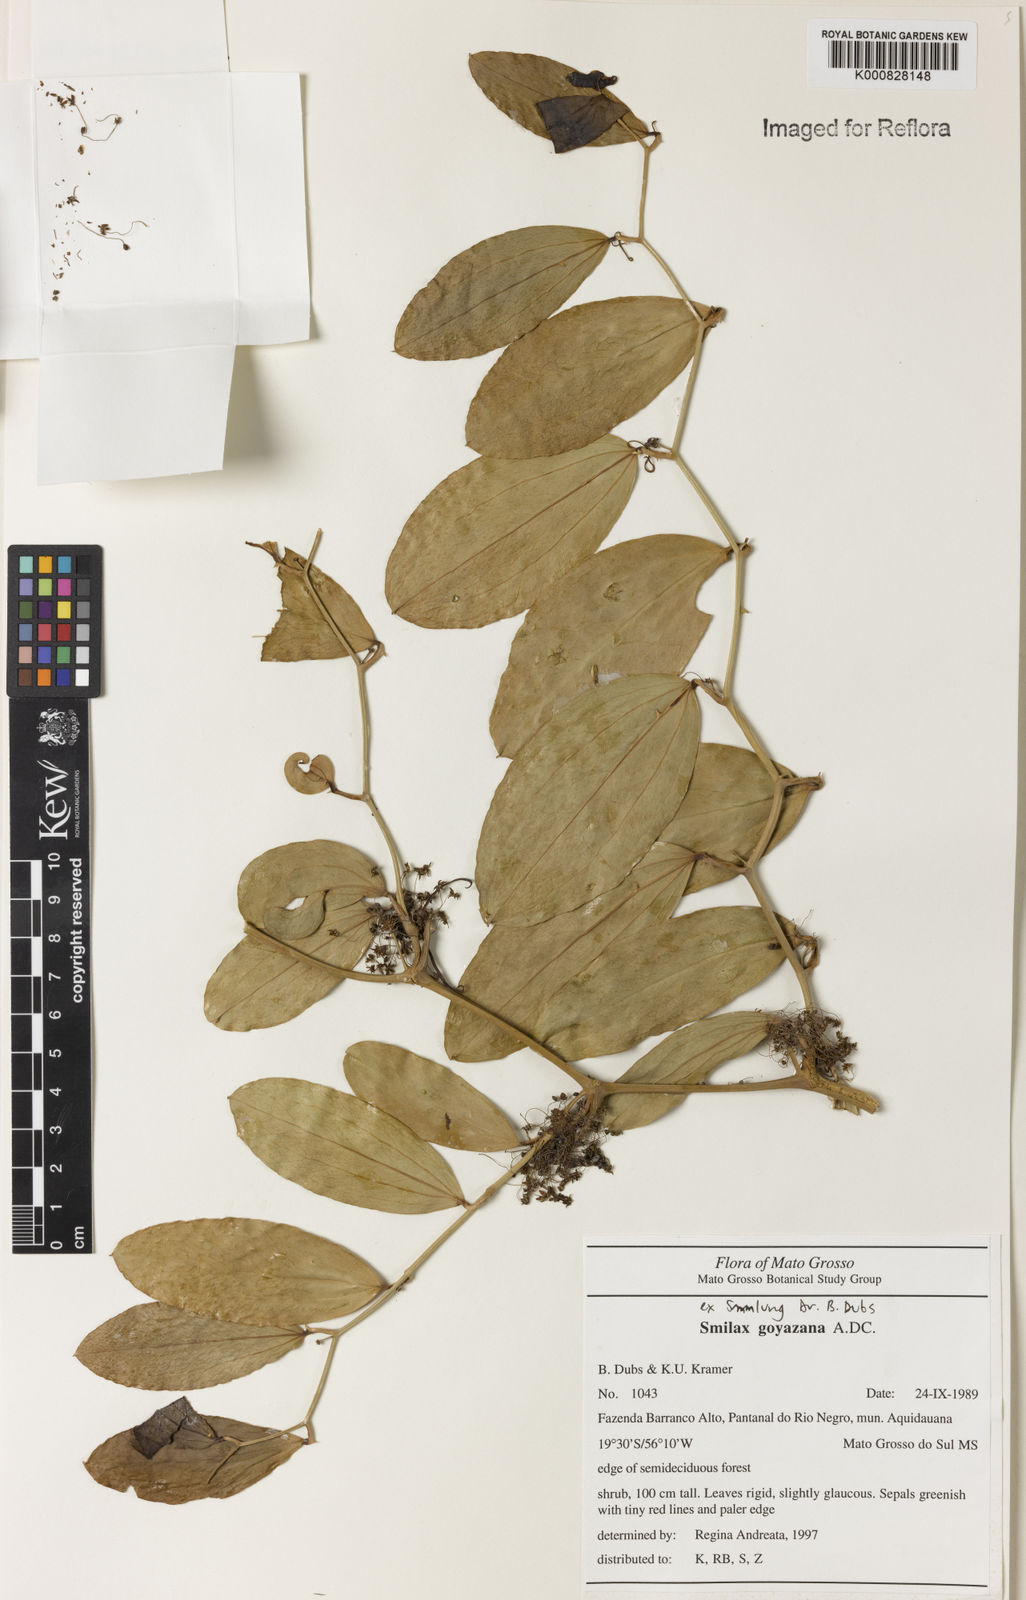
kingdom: Plantae
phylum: Tracheophyta
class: Liliopsida
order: Liliales
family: Smilacaceae
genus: Smilax
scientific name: Smilax goyazana
